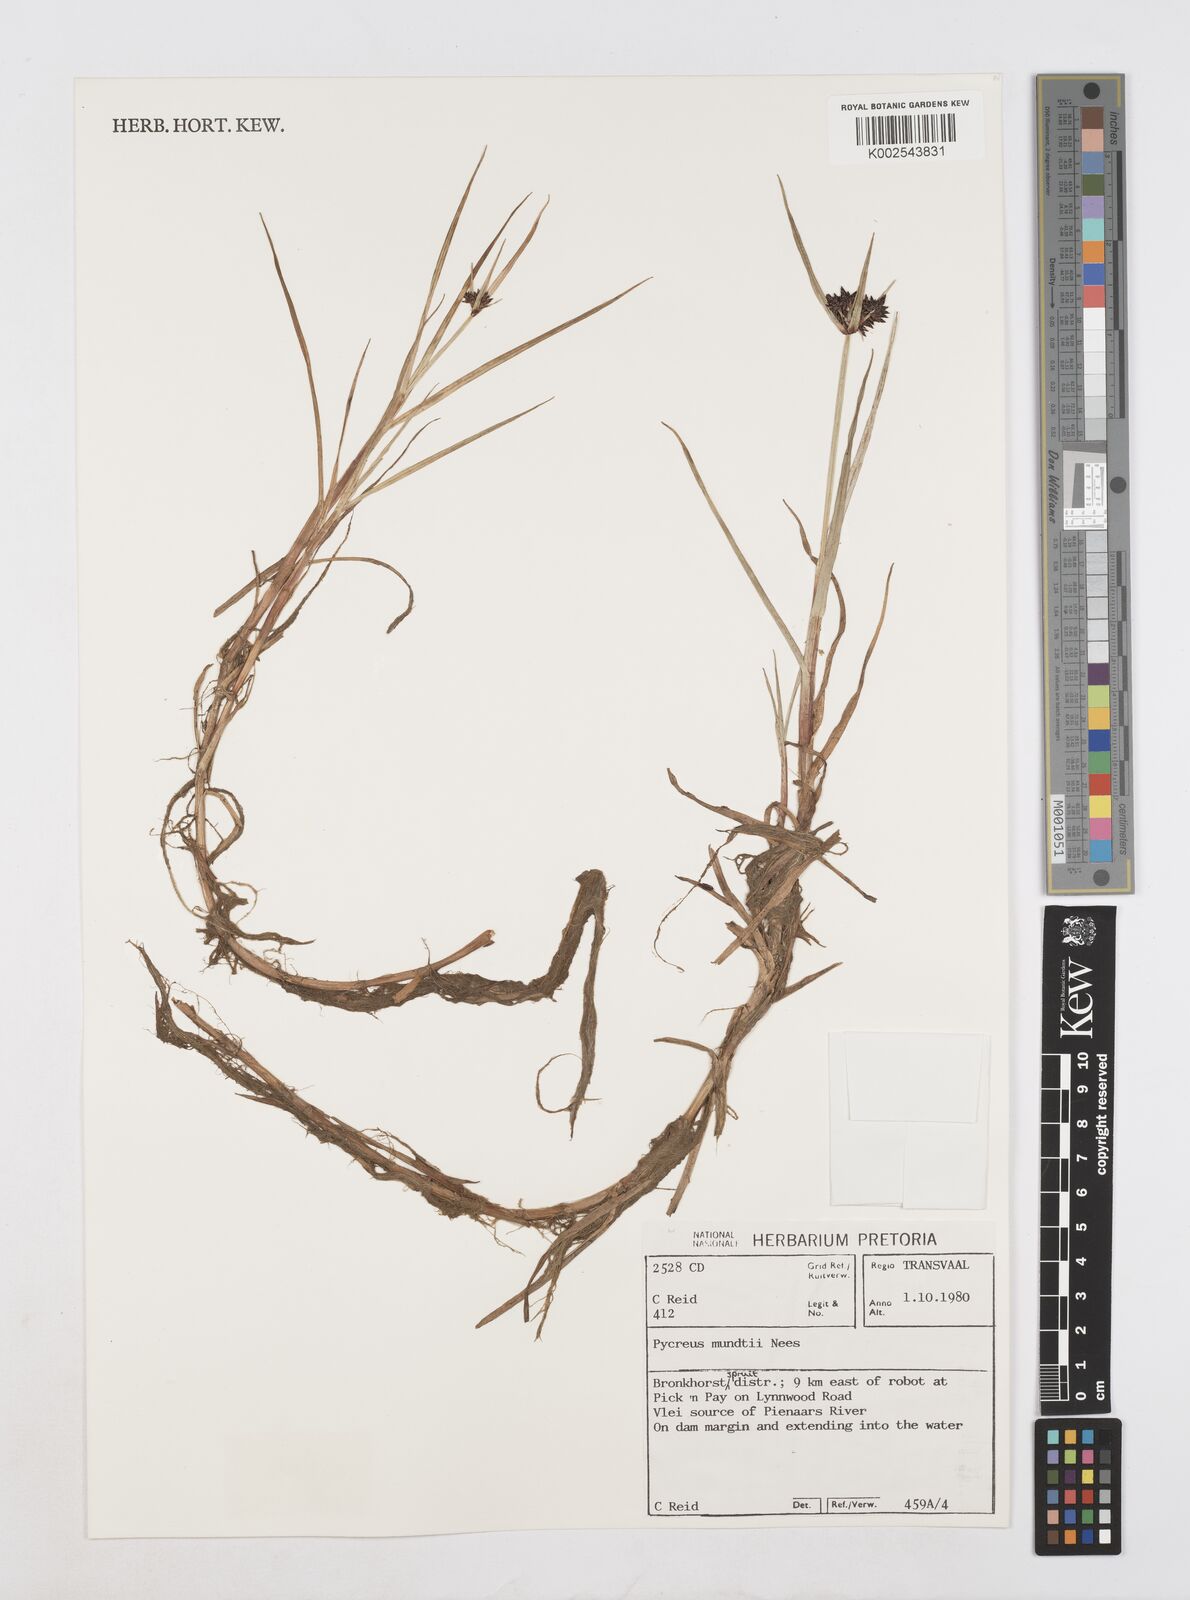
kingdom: Plantae
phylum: Tracheophyta
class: Liliopsida
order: Poales
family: Cyperaceae
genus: Cyperus
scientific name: Cyperus mundii
